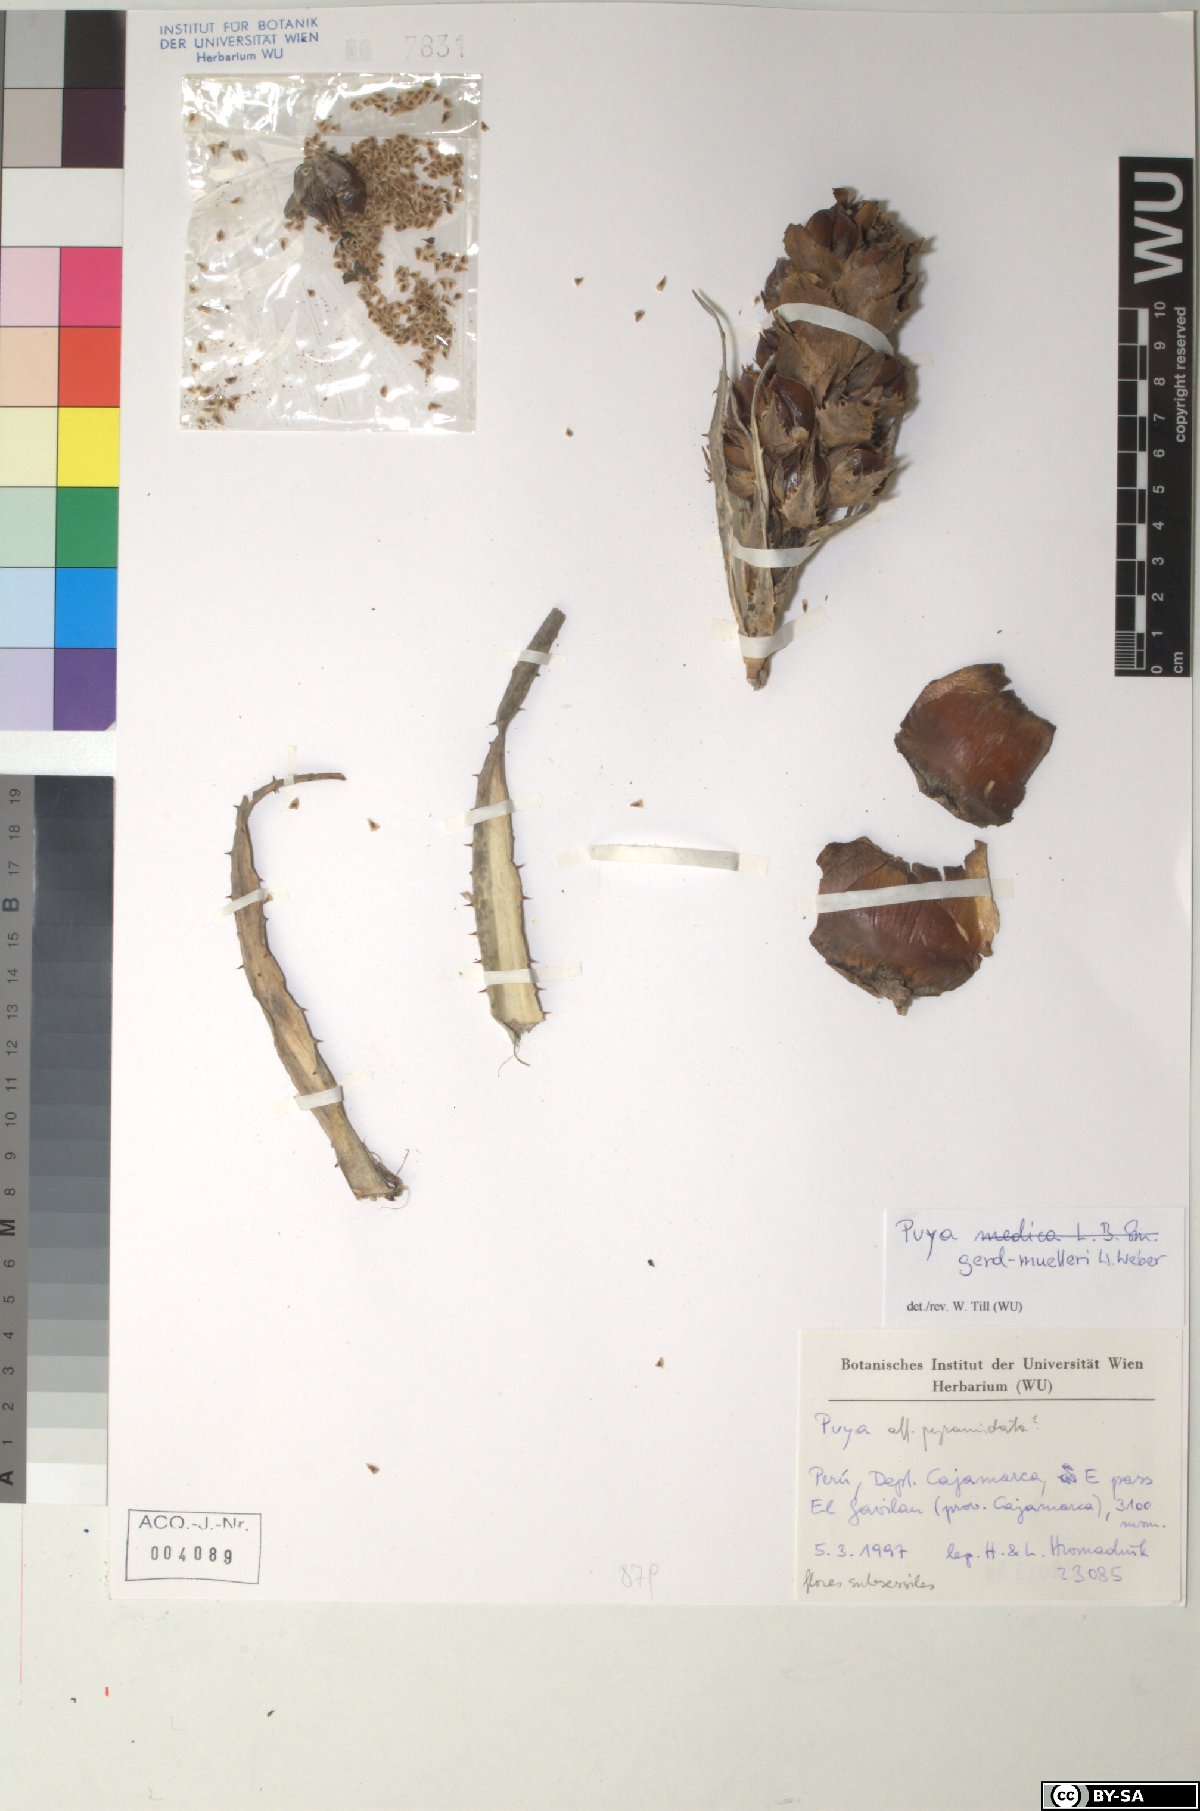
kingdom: Plantae
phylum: Tracheophyta
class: Liliopsida
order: Poales
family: Bromeliaceae
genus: Puya
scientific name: Puya gerd-muelleri
